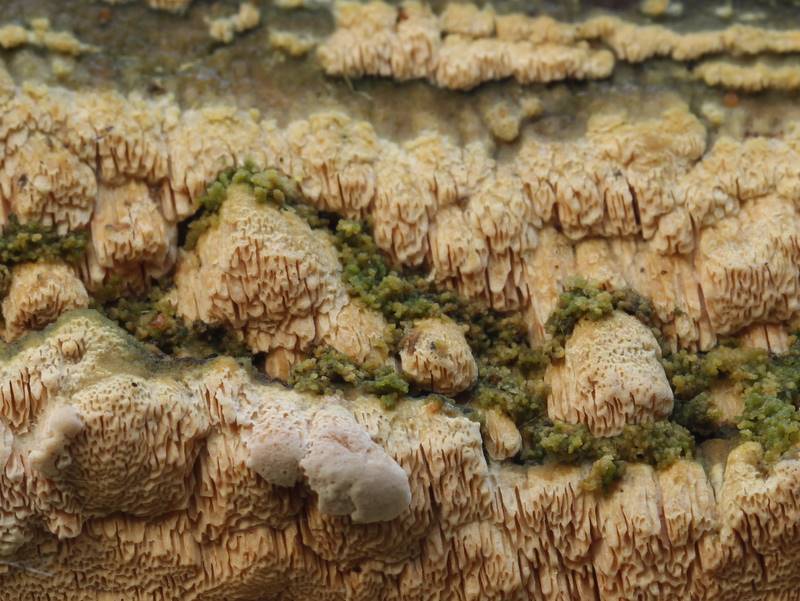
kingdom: Fungi
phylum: Basidiomycota
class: Agaricomycetes
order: Hymenochaetales
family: Schizoporaceae
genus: Xylodon
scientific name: Xylodon subtropicus
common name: labyrint-tandsvamp
